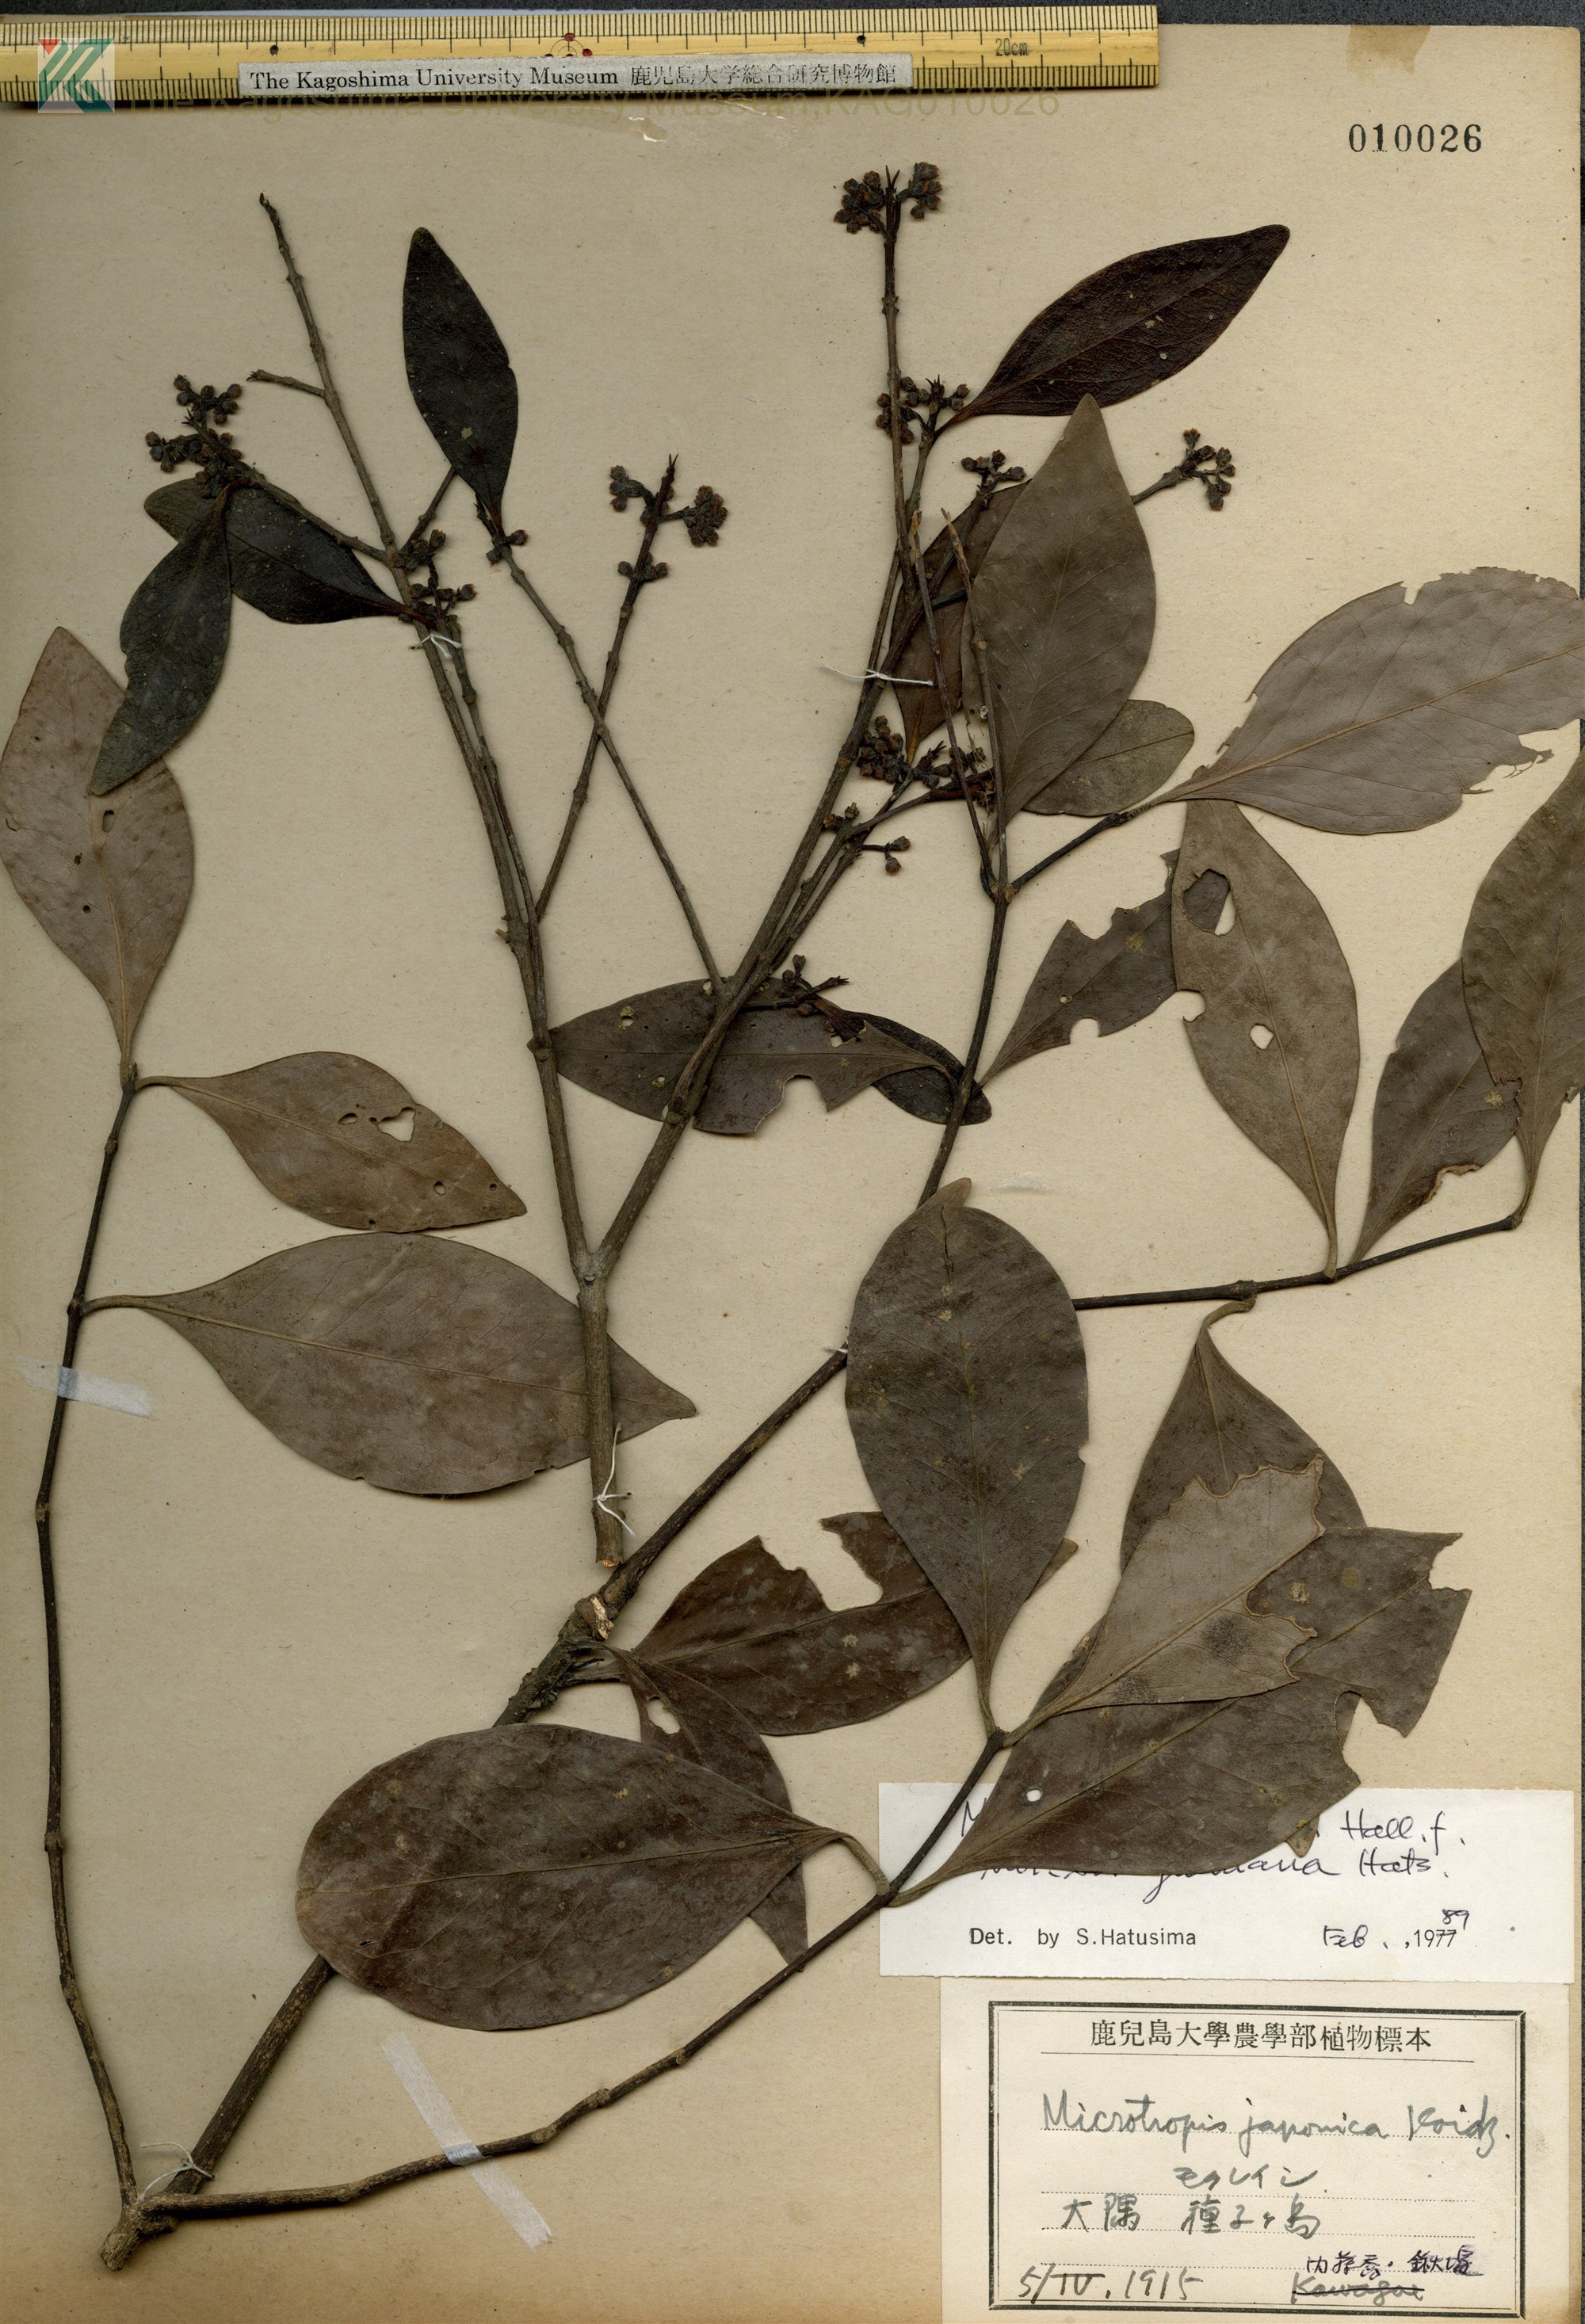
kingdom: Plantae
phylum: Tracheophyta
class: Magnoliopsida
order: Celastrales
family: Celastraceae
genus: Microtropis
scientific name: Microtropis japonica
